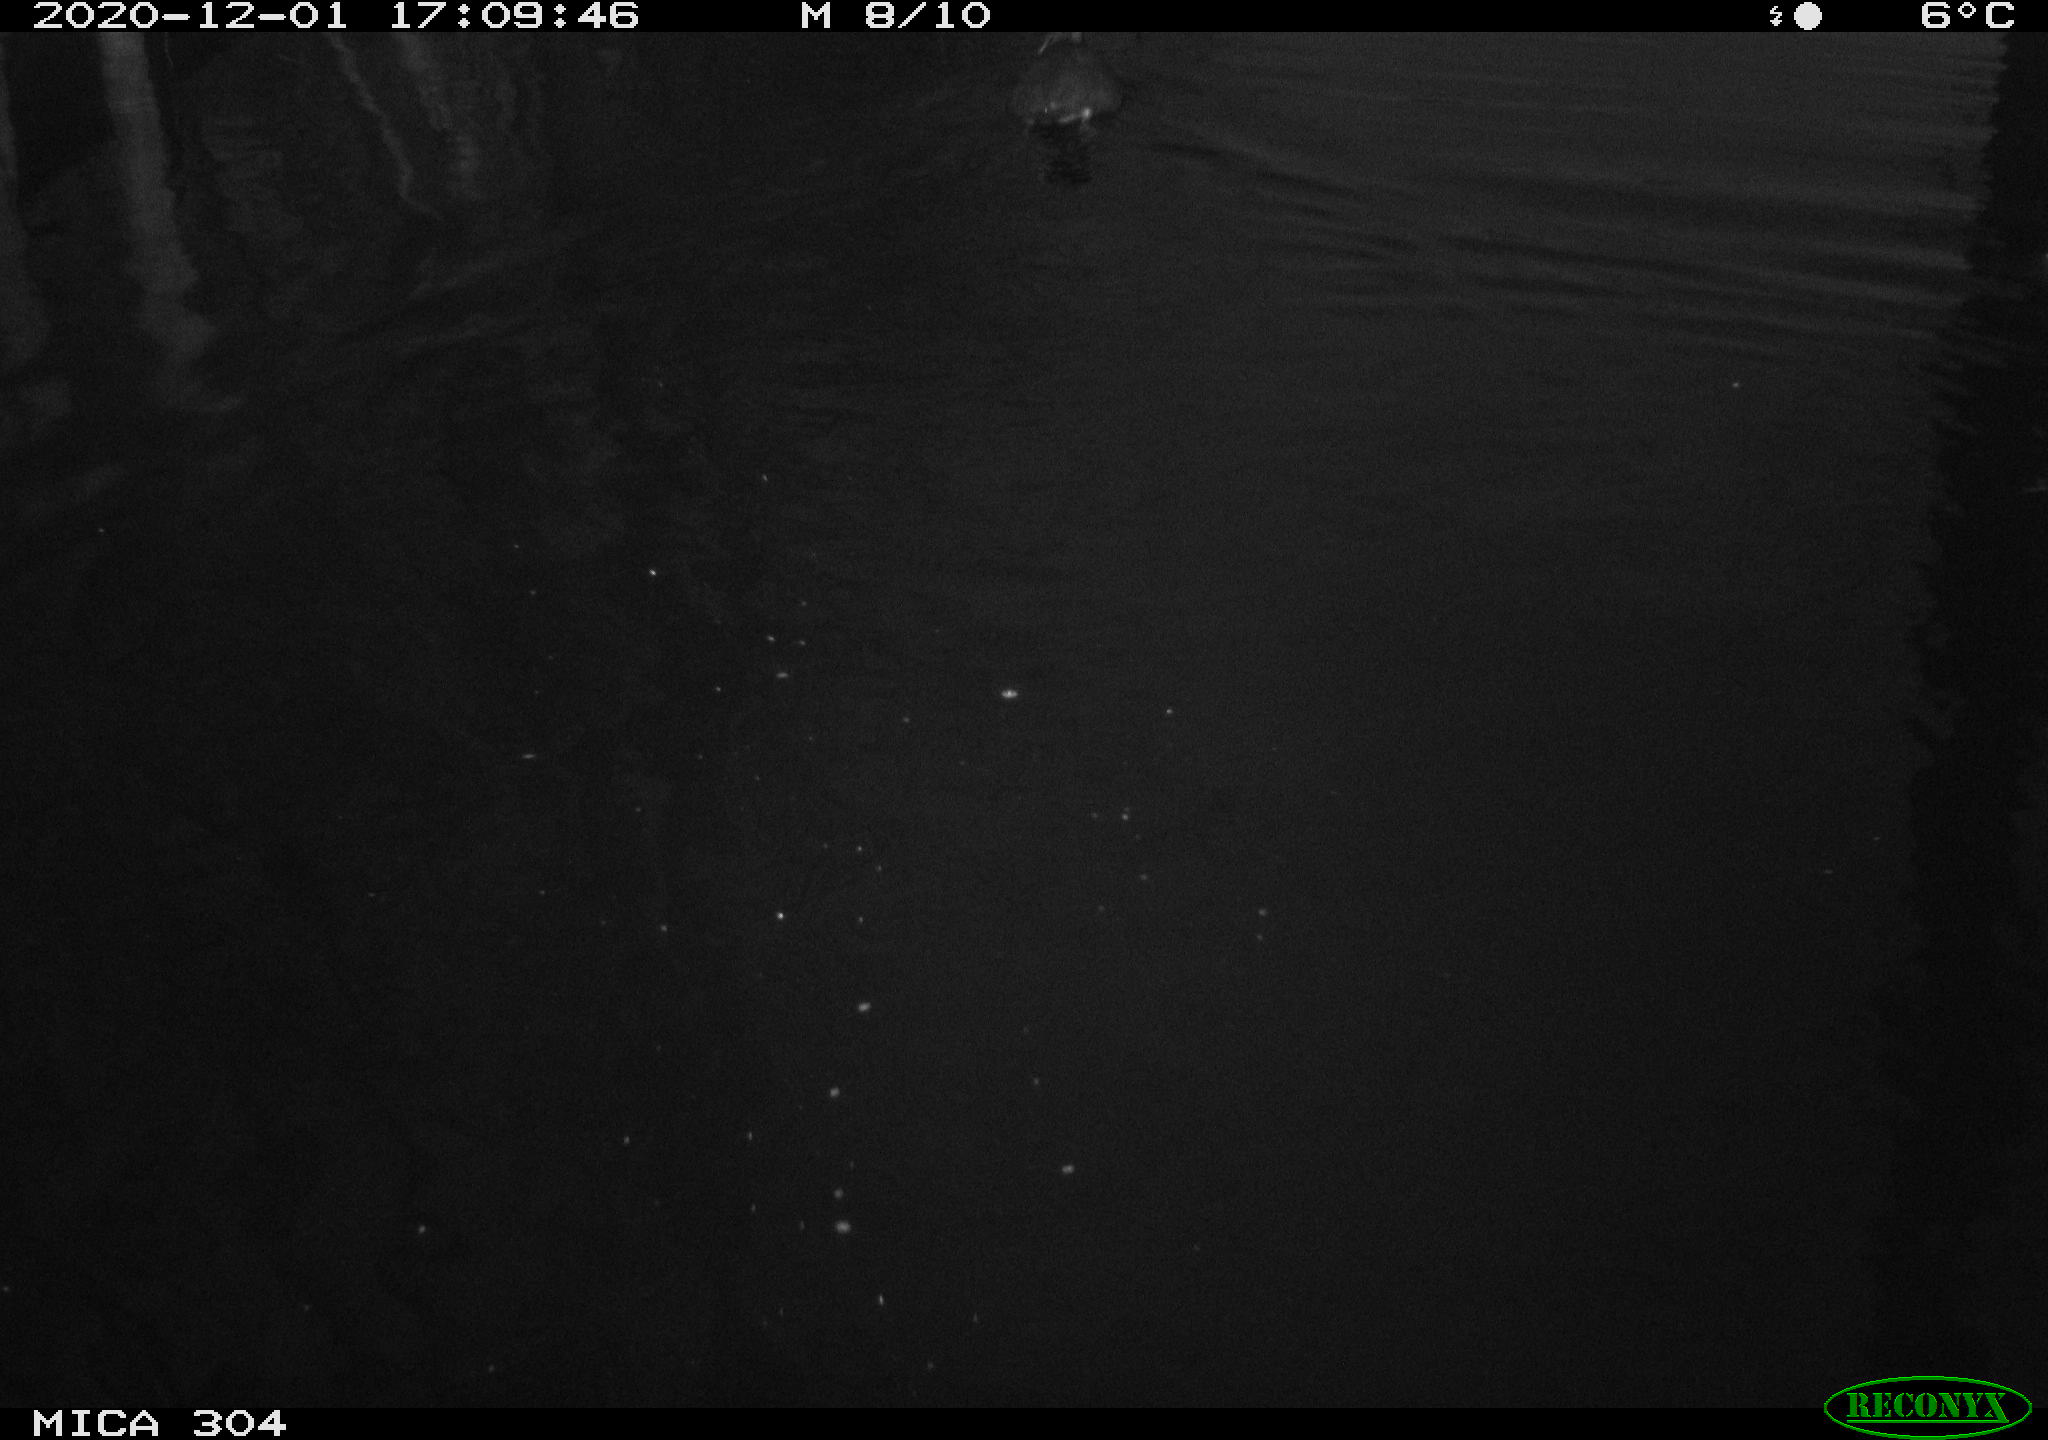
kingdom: Animalia
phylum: Chordata
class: Aves
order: Gruiformes
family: Rallidae
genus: Fulica
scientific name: Fulica atra
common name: Eurasian coot
